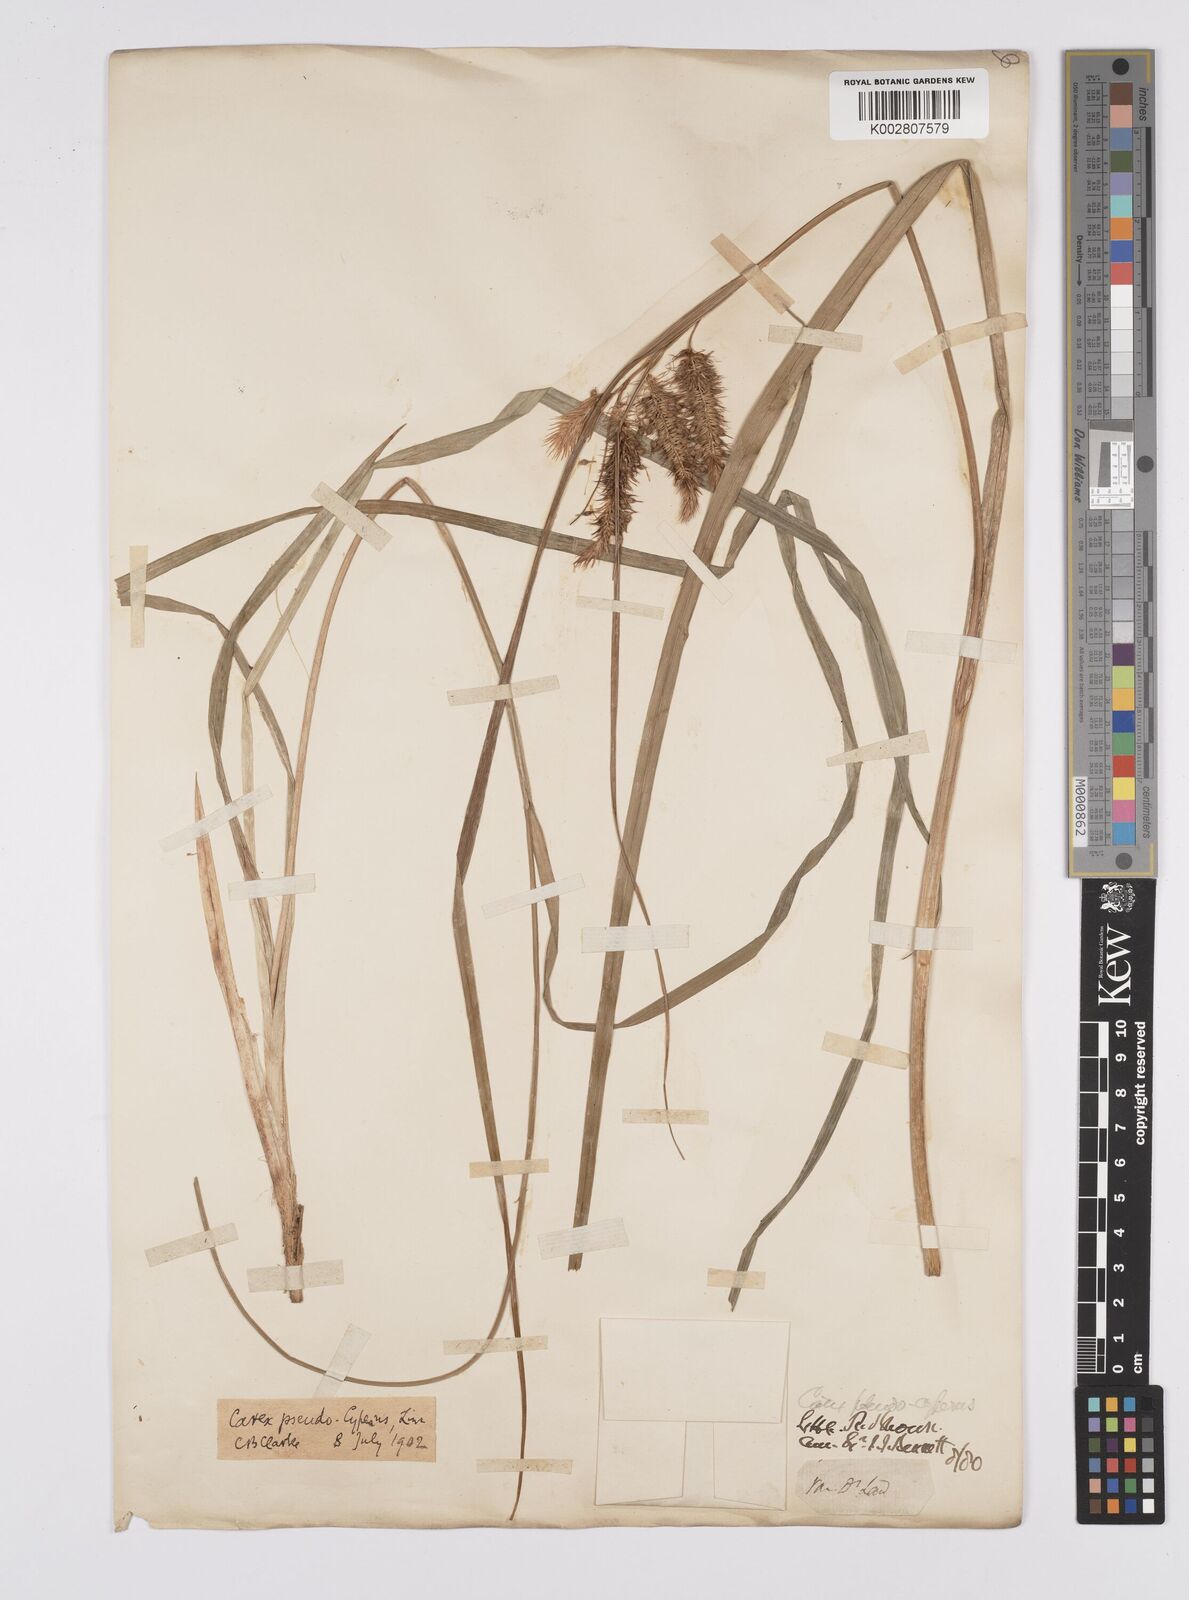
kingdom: Plantae
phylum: Tracheophyta
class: Liliopsida
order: Poales
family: Cyperaceae
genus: Carex
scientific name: Carex fascicularis
